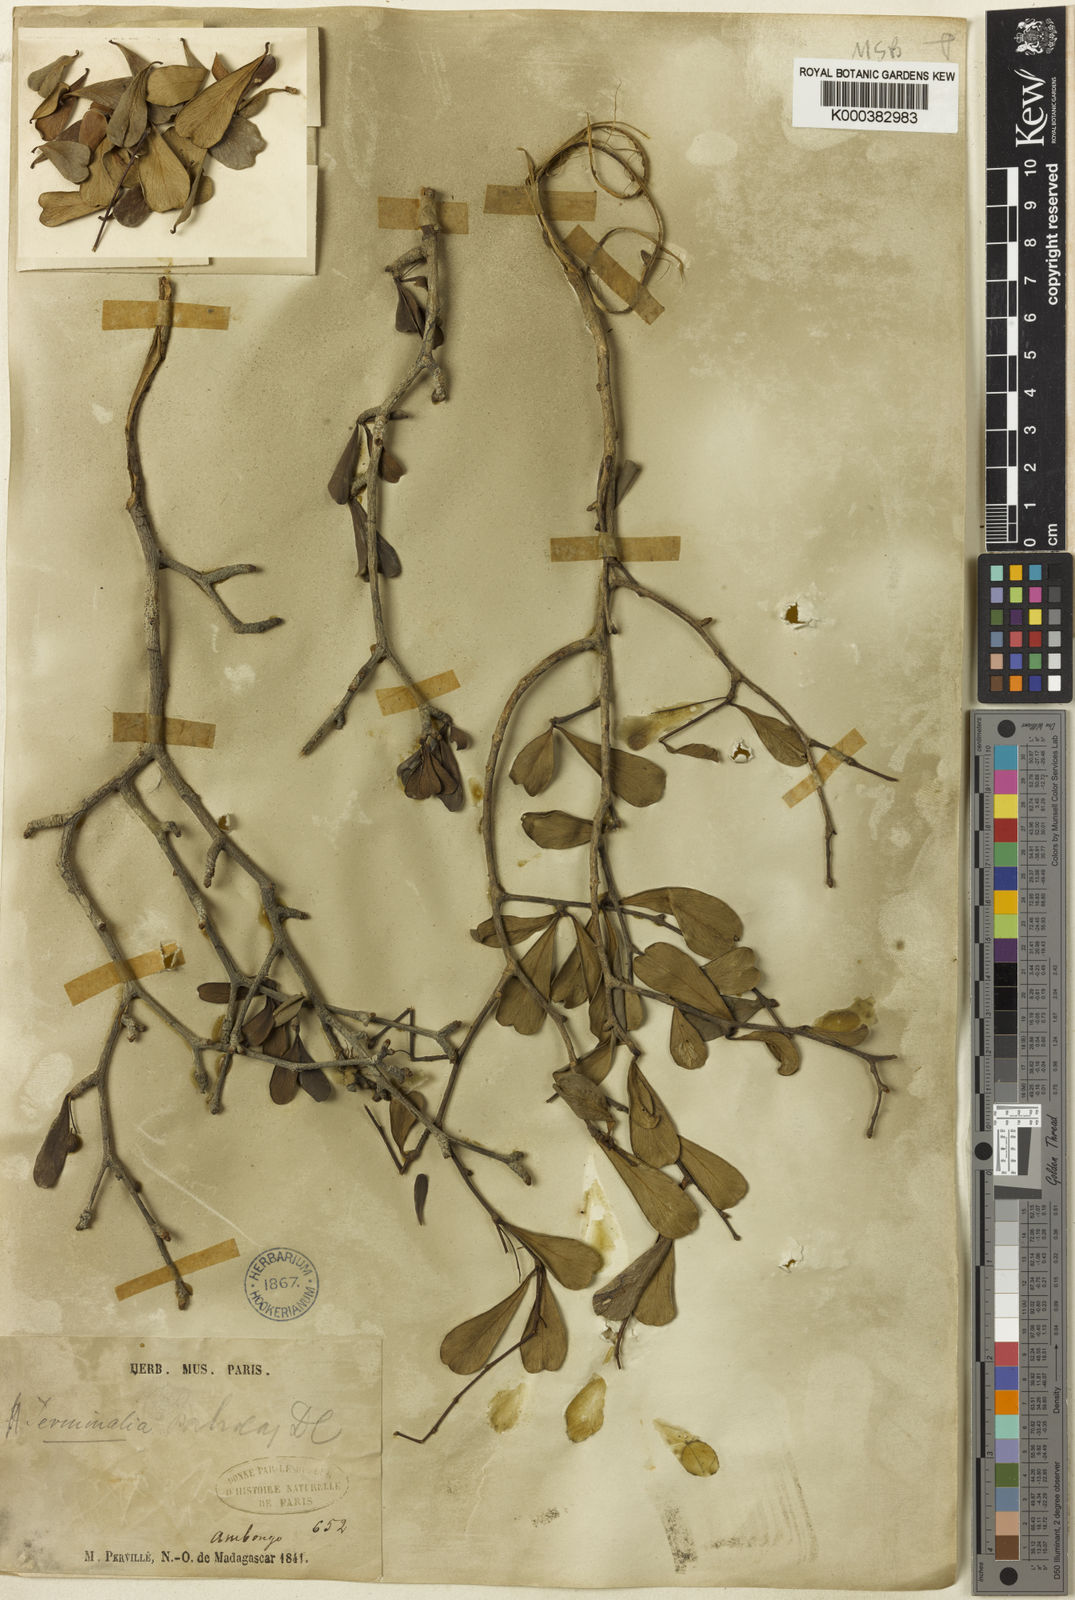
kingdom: Plantae
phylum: Tracheophyta
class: Magnoliopsida
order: Myrtales
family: Combretaceae
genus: Terminalia
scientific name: Terminalia fatraea
